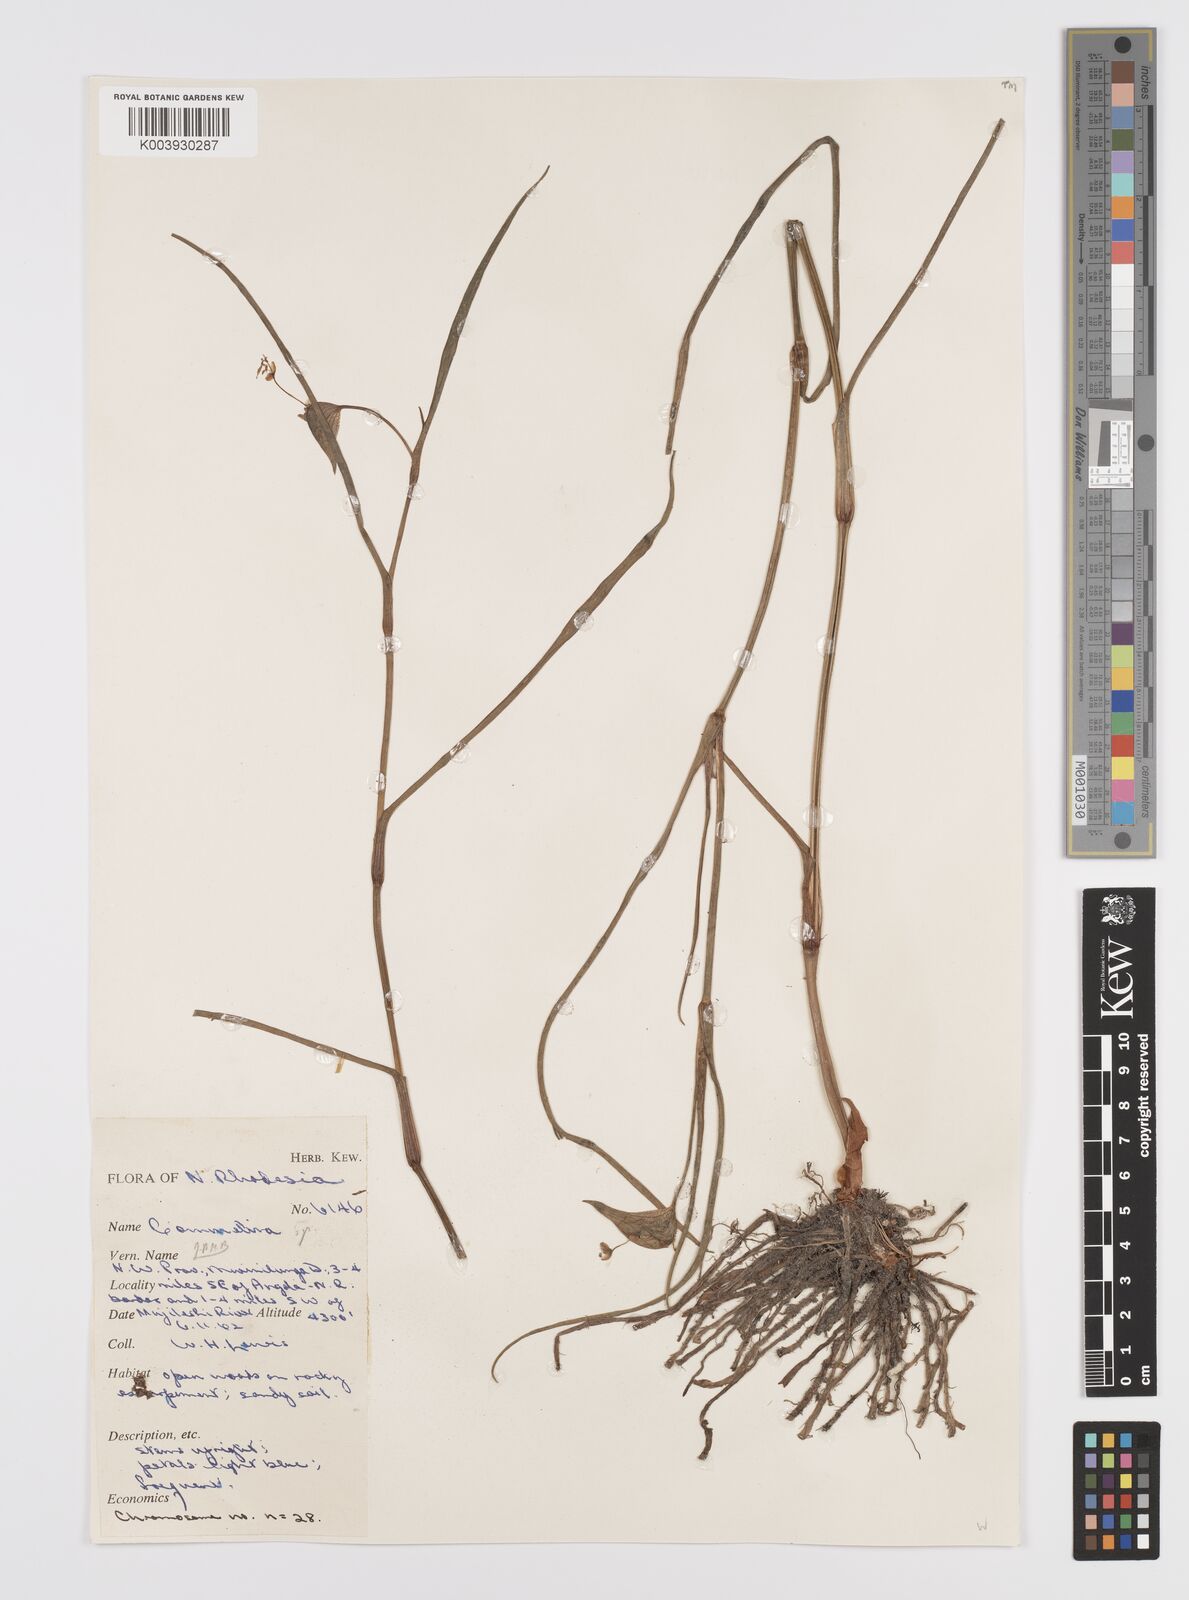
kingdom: Plantae
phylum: Tracheophyta
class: Liliopsida
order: Commelinales
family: Commelinaceae
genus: Commelina
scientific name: Commelina schweinfurthii
